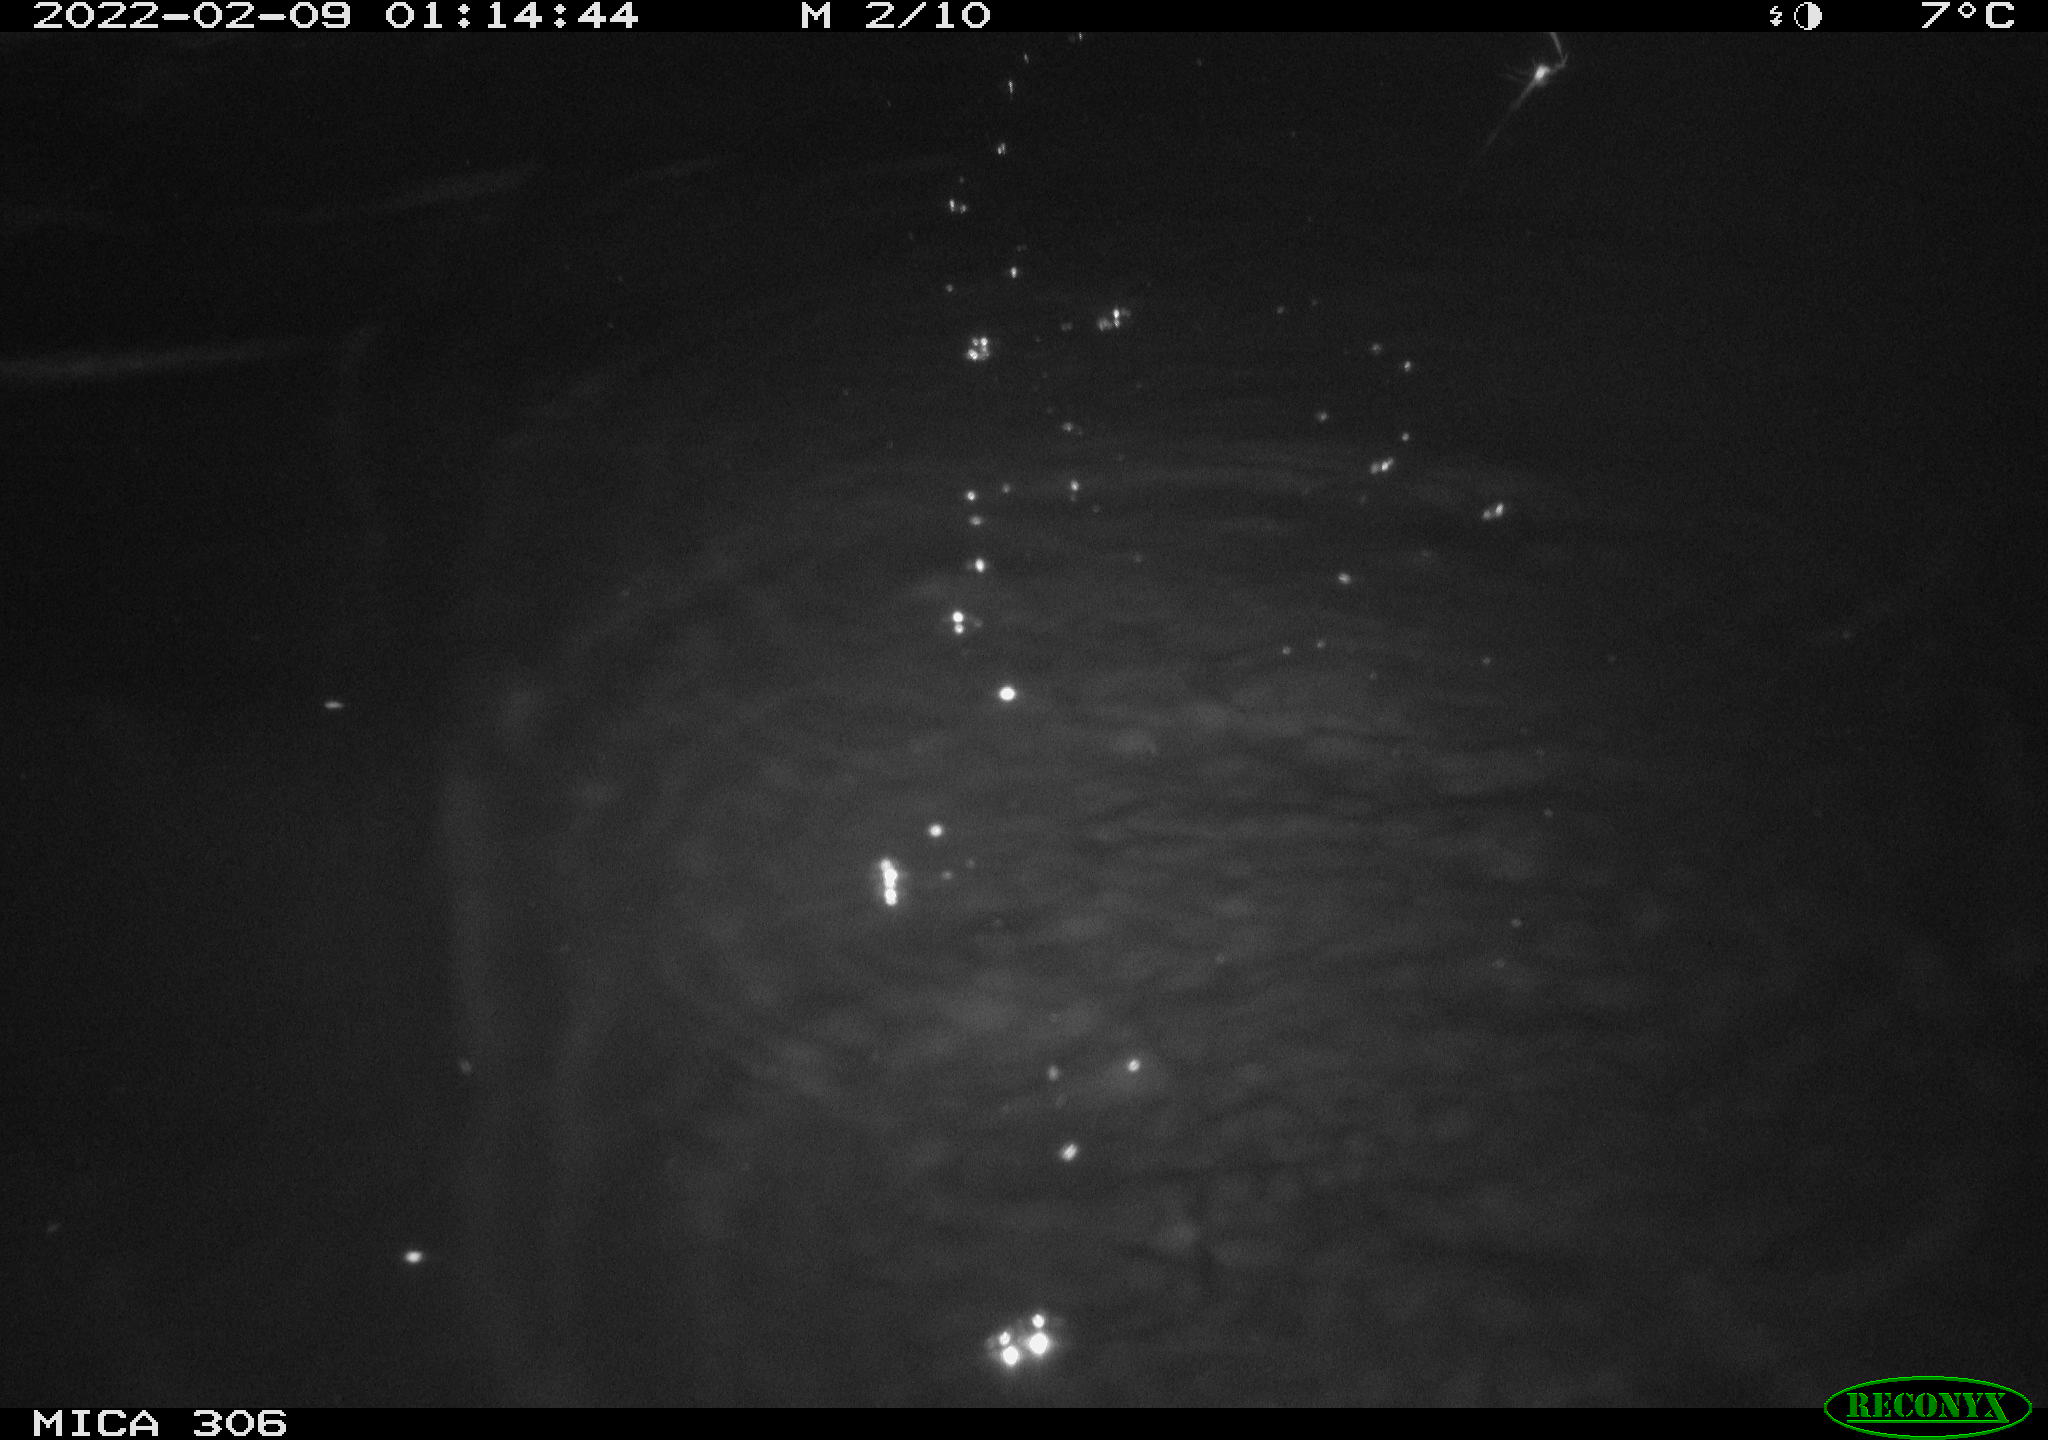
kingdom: Animalia
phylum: Chordata
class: Mammalia
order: Rodentia
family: Cricetidae
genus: Ondatra
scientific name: Ondatra zibethicus
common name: Muskrat
